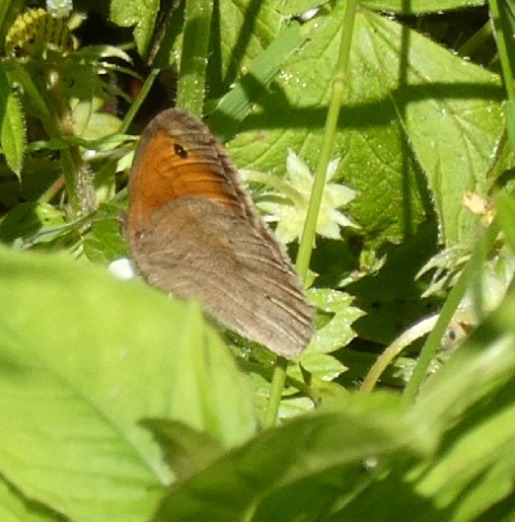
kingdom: Animalia
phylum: Arthropoda
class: Insecta
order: Lepidoptera
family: Nymphalidae
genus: Maniola
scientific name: Maniola jurtina
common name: Græsrandøje
